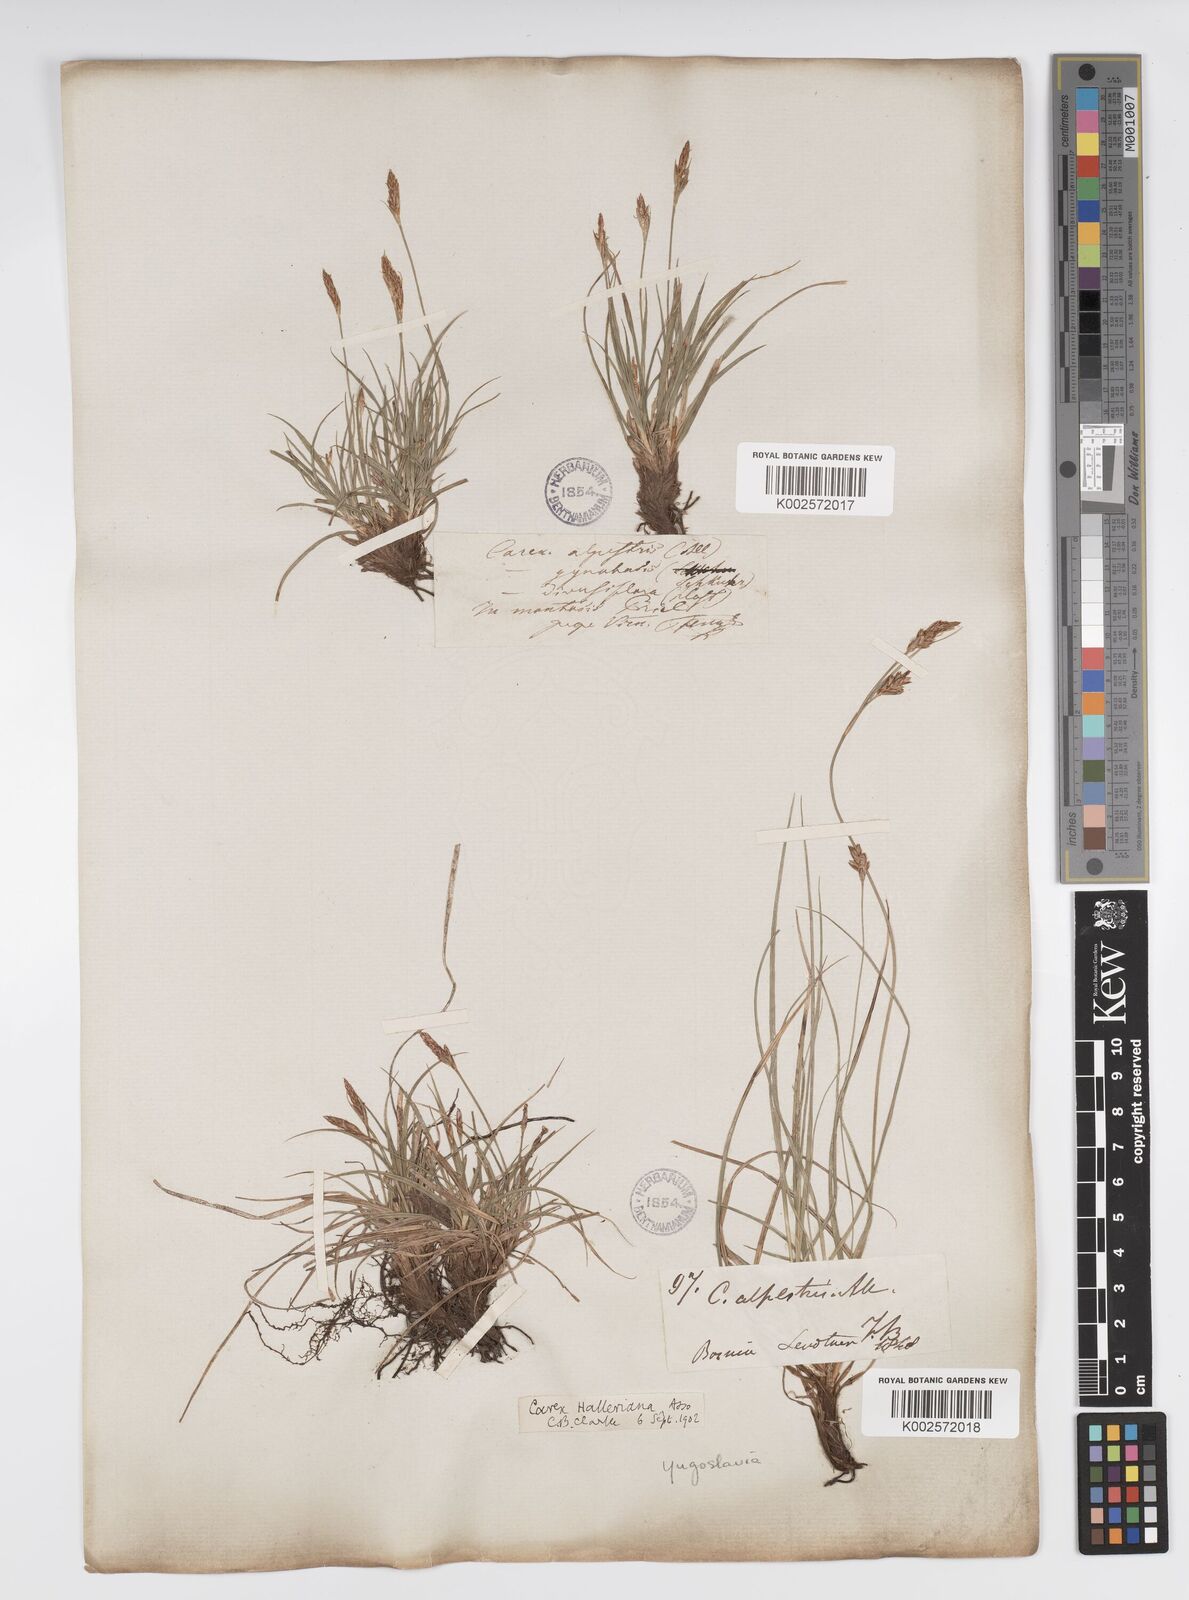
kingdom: Plantae
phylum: Tracheophyta
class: Liliopsida
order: Poales
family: Cyperaceae
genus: Carex
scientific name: Carex halleriana
